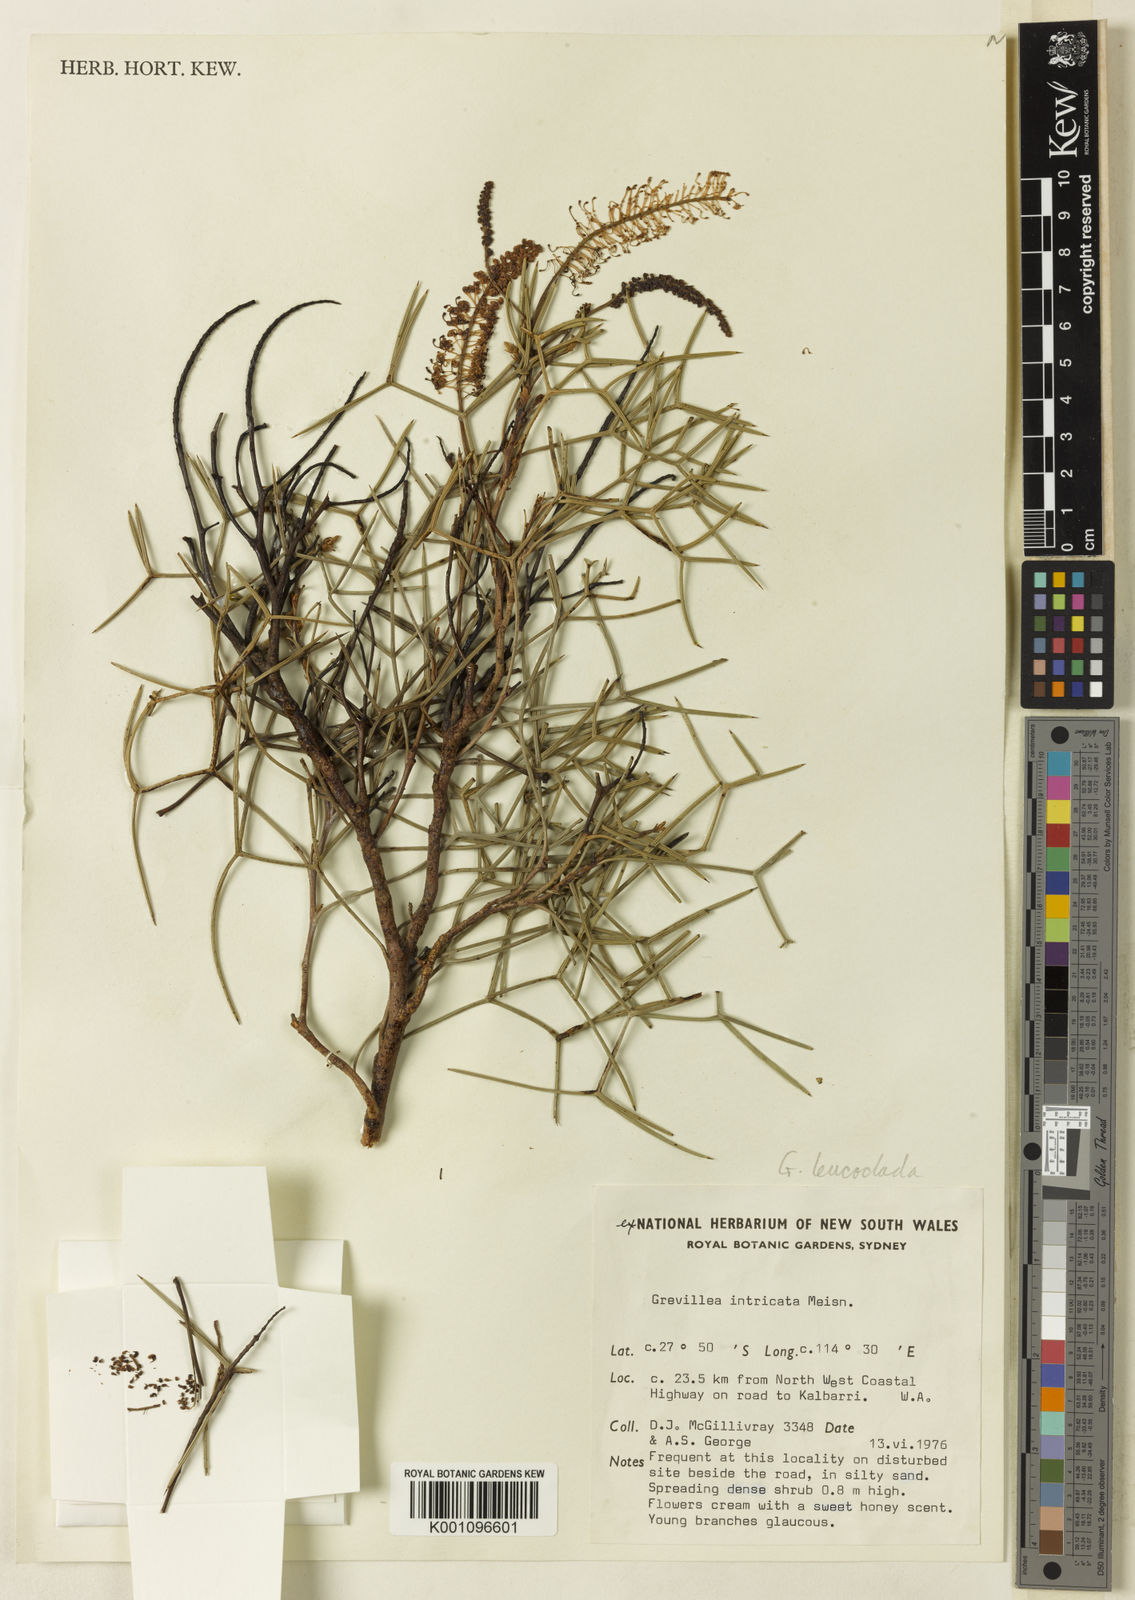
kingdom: Plantae
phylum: Tracheophyta
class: Magnoliopsida
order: Proteales
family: Proteaceae
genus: Grevillea
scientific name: Grevillea leucoclada
